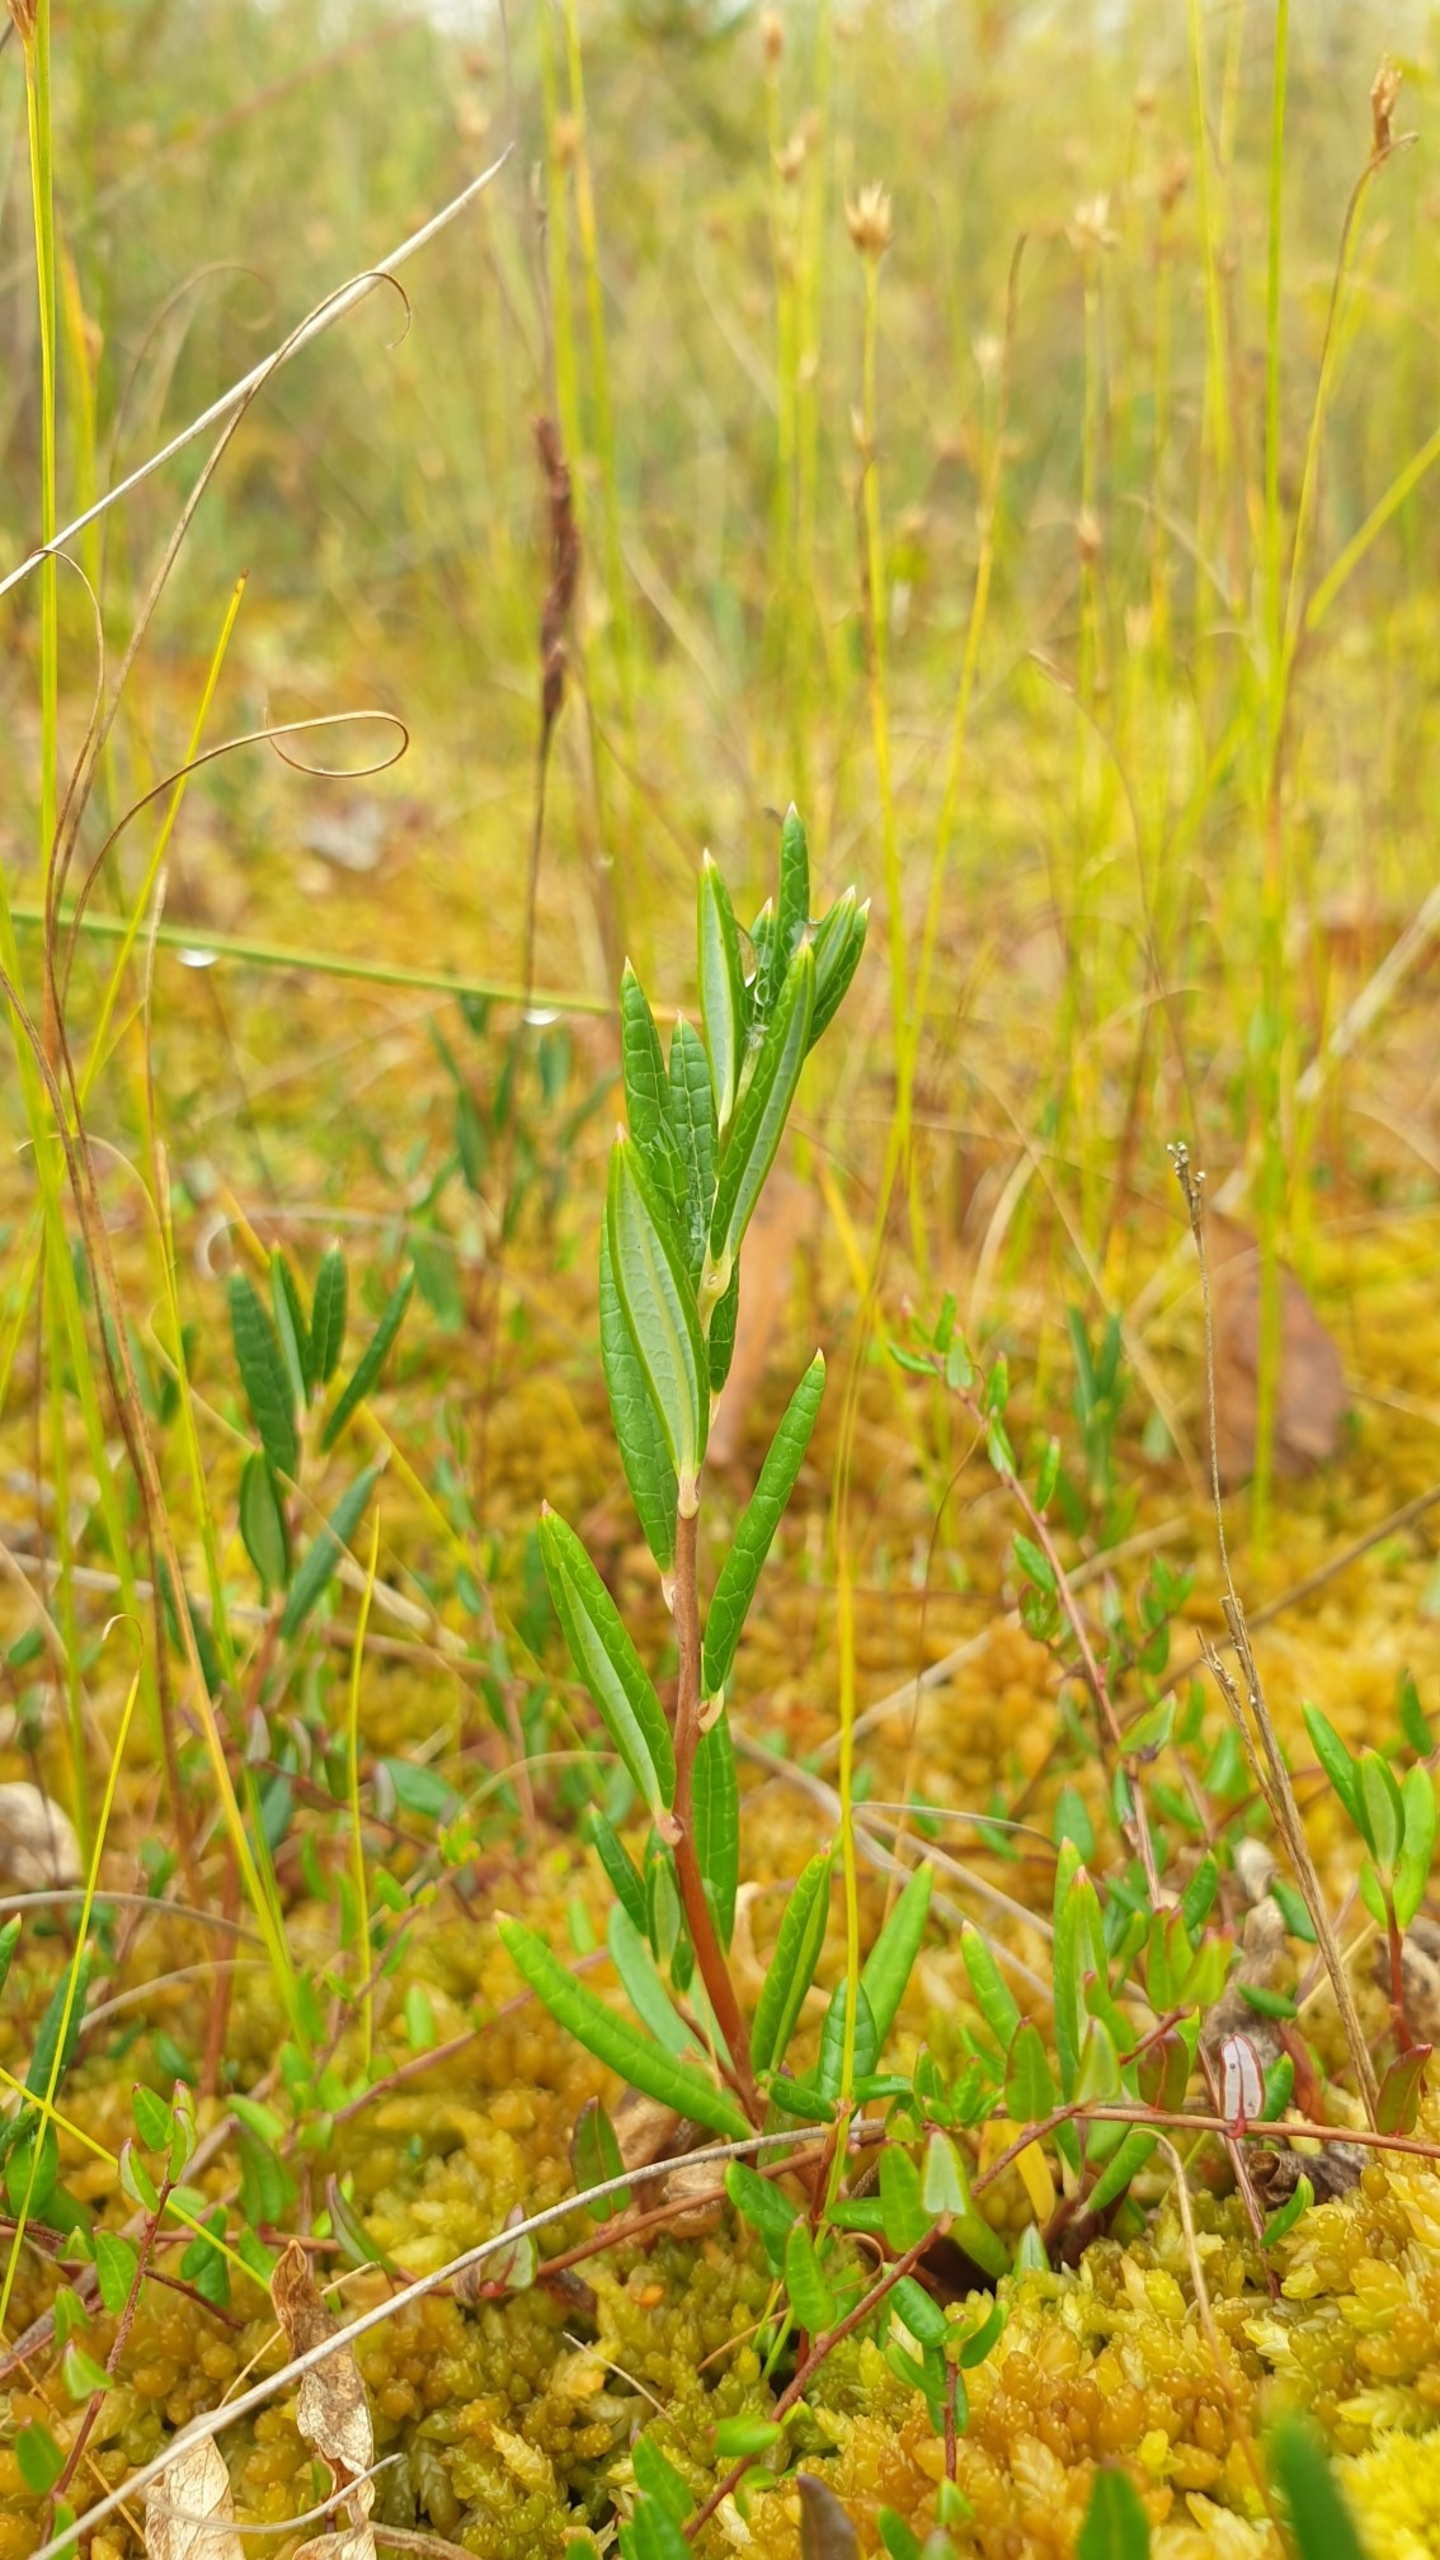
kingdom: Plantae
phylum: Tracheophyta
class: Magnoliopsida
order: Ericales
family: Ericaceae
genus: Andromeda
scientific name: Andromeda polifolia
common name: Rosmarinlyng
